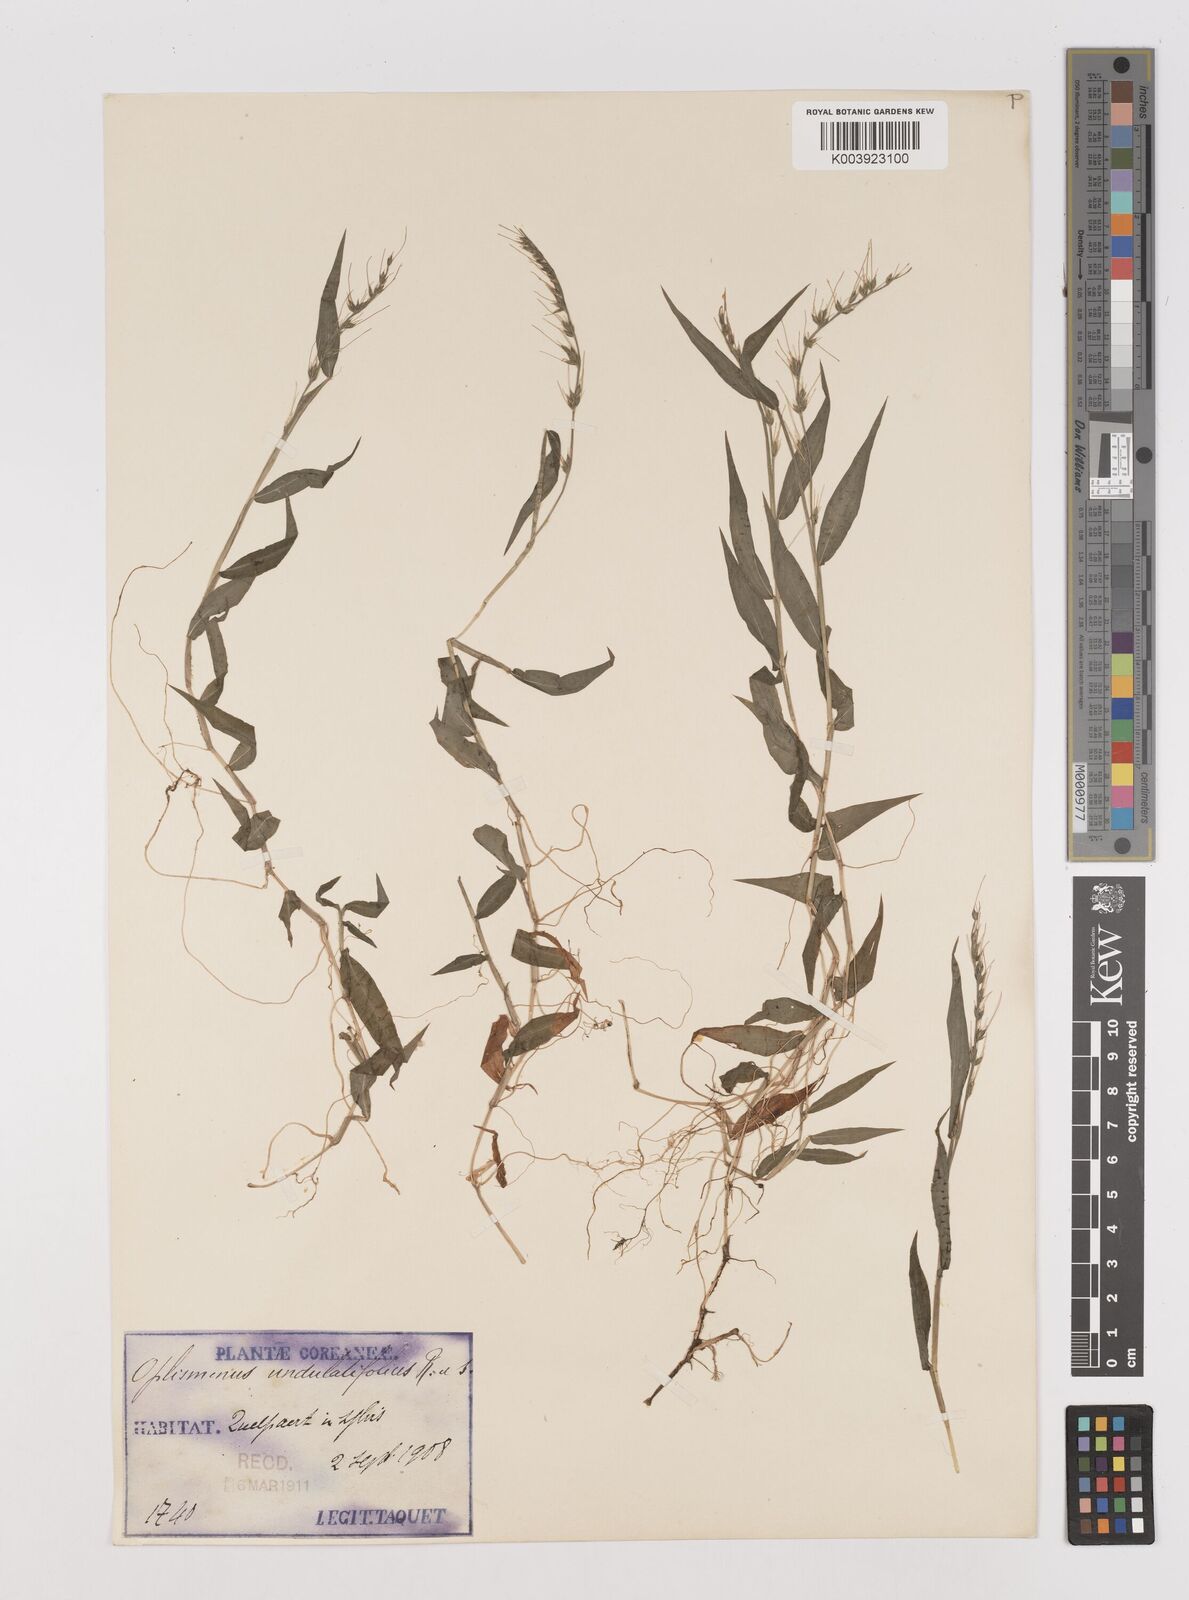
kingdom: Plantae
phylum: Tracheophyta
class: Liliopsida
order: Poales
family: Poaceae
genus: Oplismenus
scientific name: Oplismenus undulatifolius
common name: Wavyleaf basketgrass
